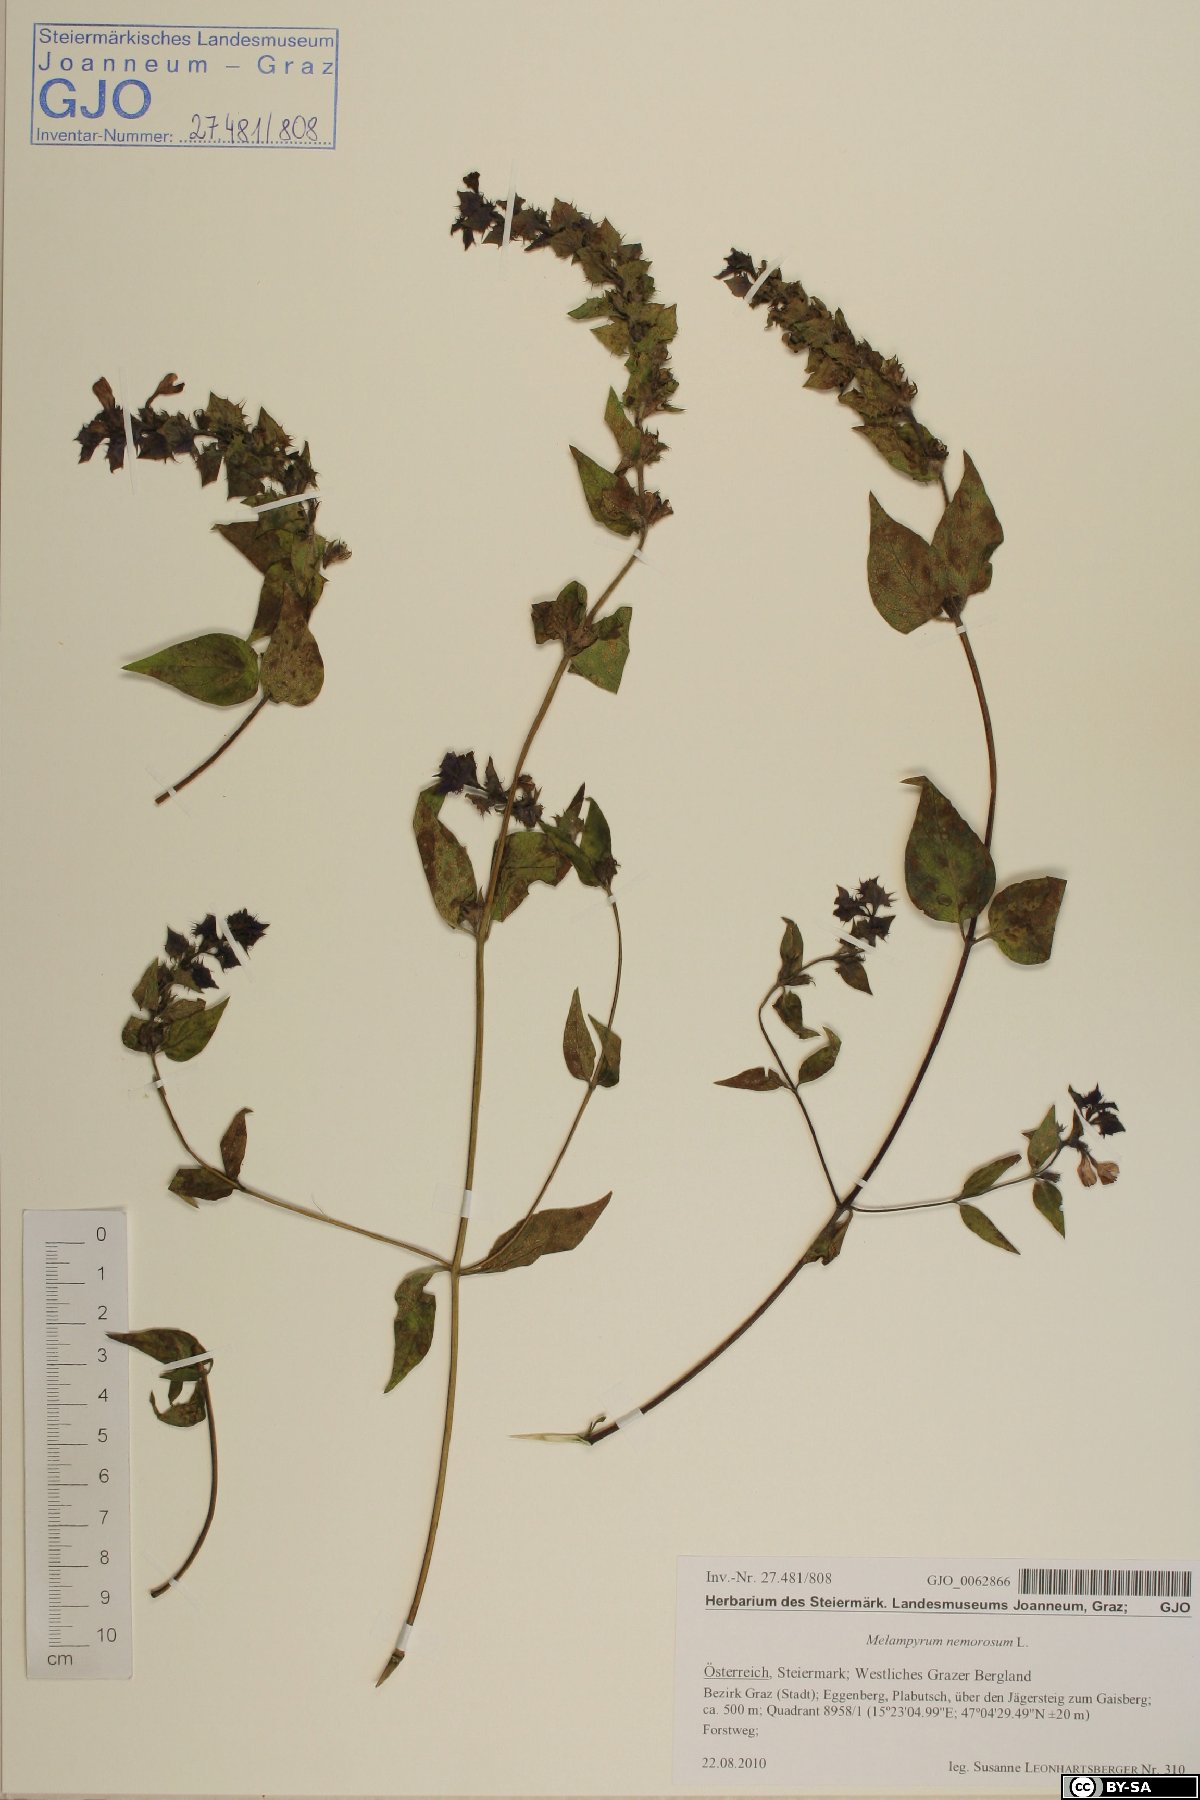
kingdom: Plantae
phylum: Tracheophyta
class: Magnoliopsida
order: Lamiales
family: Orobanchaceae
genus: Melampyrum
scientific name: Melampyrum nemorosum
